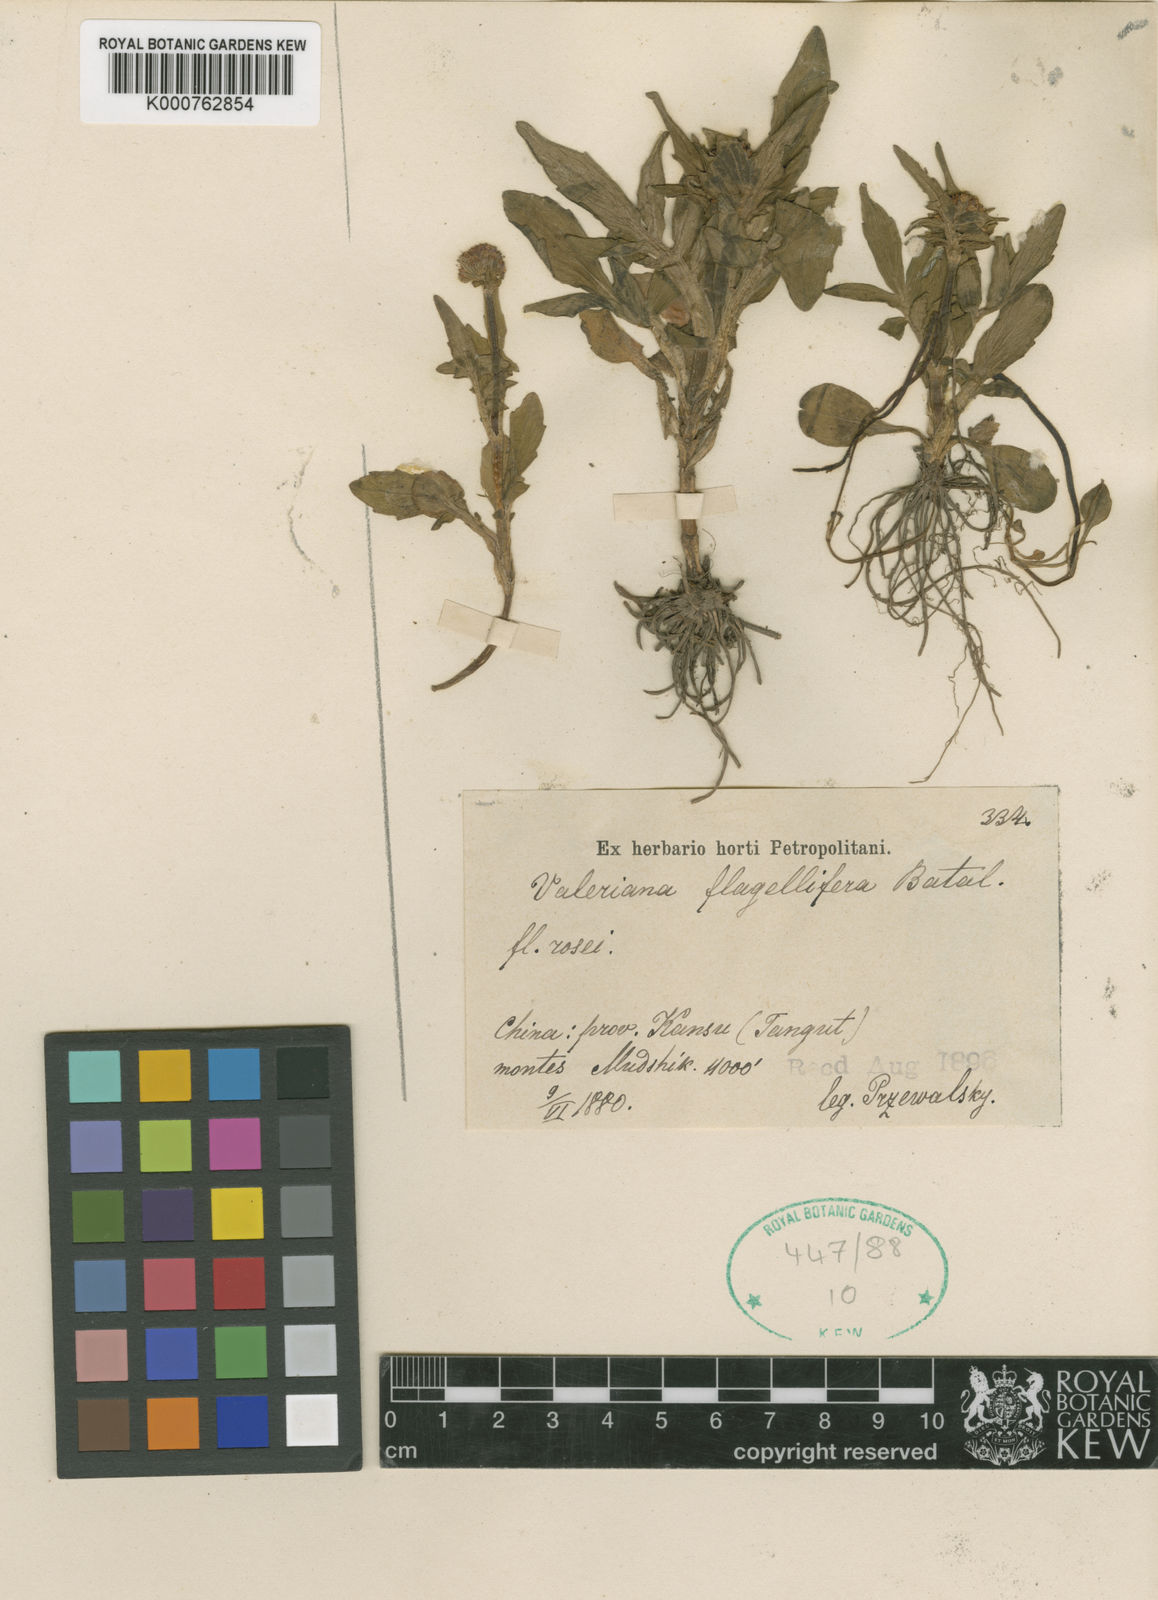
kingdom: Plantae
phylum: Tracheophyta
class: Magnoliopsida
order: Dipsacales
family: Caprifoliaceae
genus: Valeriana
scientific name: Valeriana flagellifera
